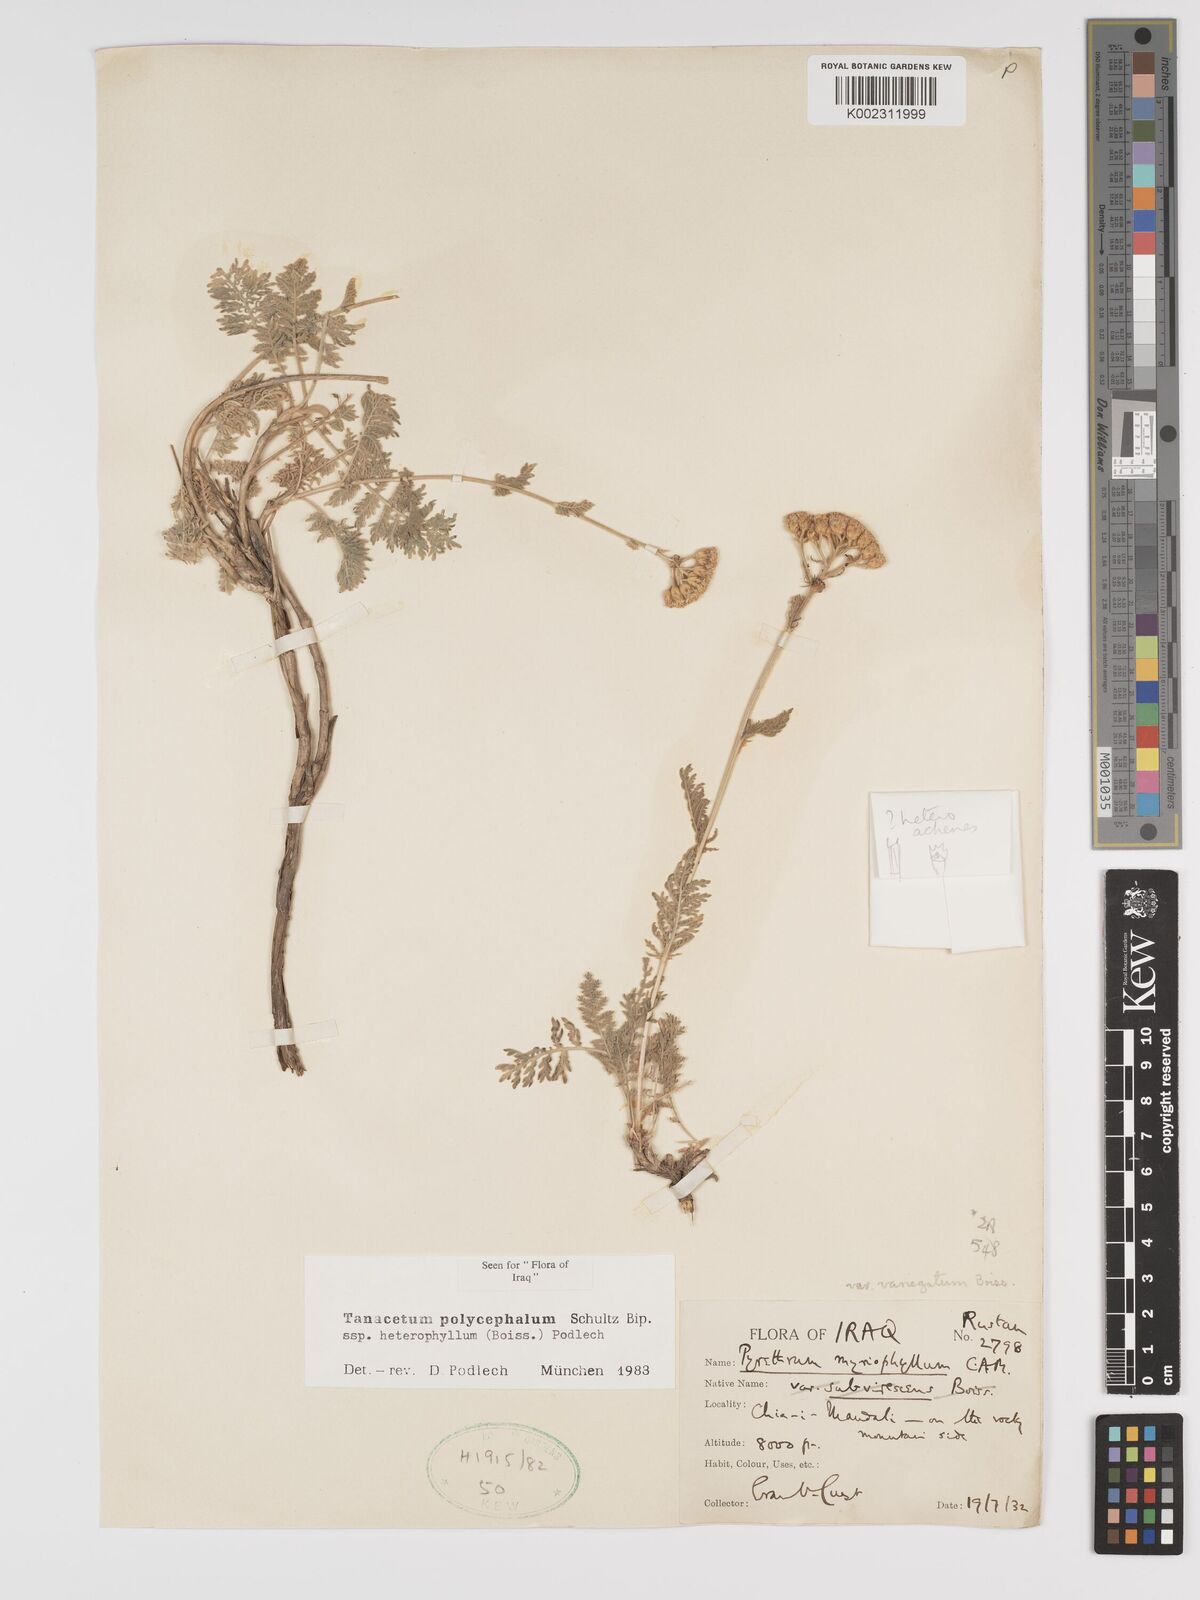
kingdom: Plantae
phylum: Tracheophyta
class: Magnoliopsida
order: Asterales
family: Asteraceae
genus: Tanacetum
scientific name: Tanacetum polycephalum
